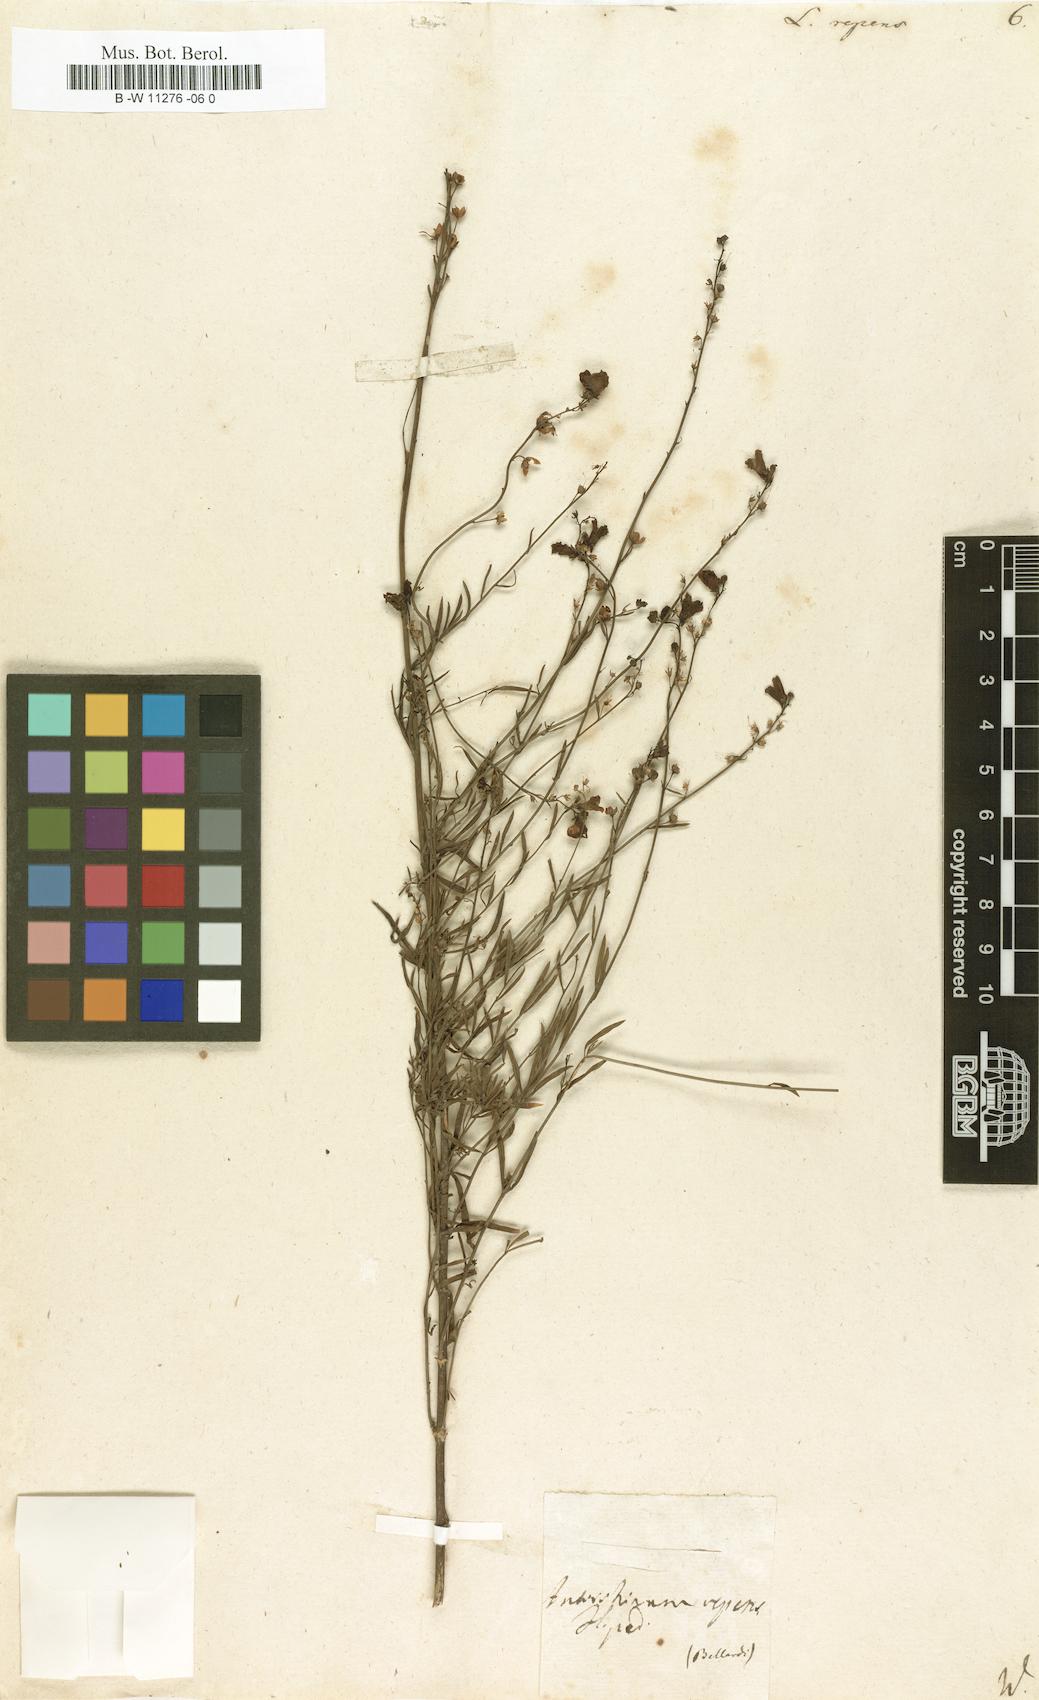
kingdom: Plantae
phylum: Tracheophyta
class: Magnoliopsida
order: Lamiales
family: Plantaginaceae
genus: Linaria
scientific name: Linaria repens
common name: Pale toadflax
